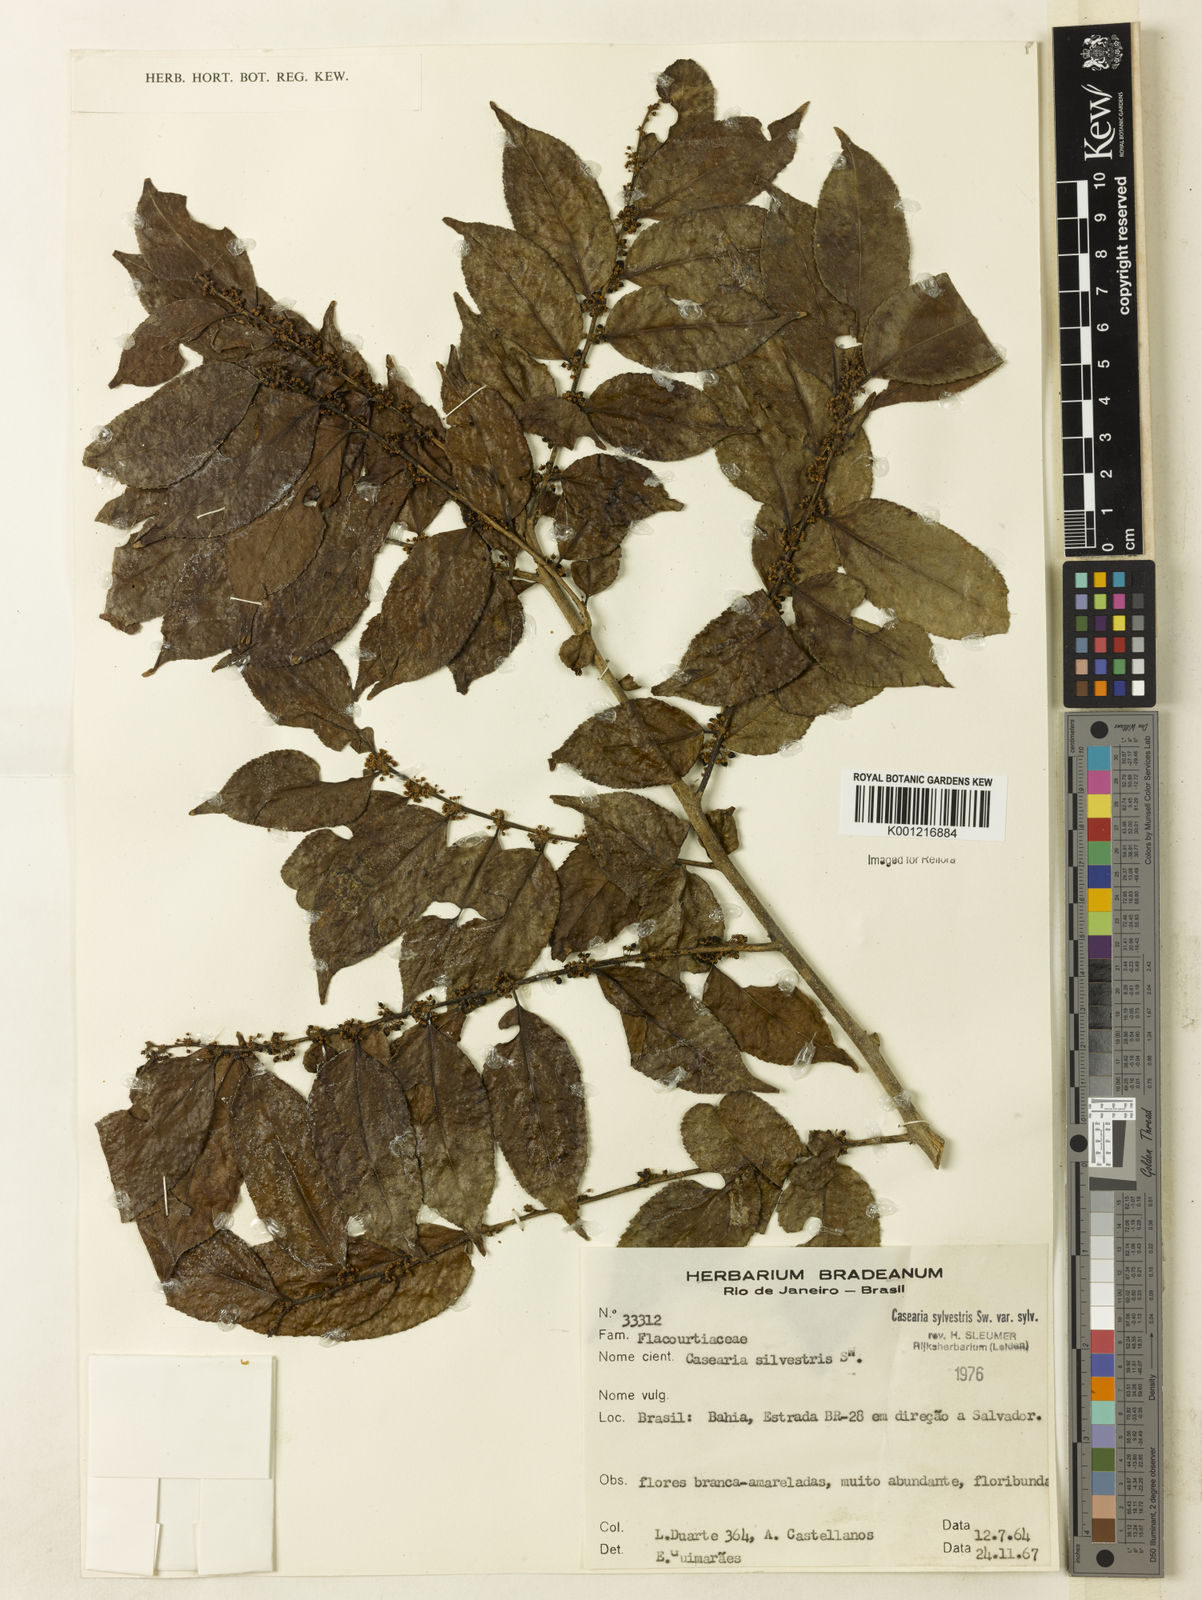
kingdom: Plantae
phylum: Tracheophyta
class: Magnoliopsida
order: Malpighiales
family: Salicaceae
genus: Casearia
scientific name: Casearia sylvestris
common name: Wild sage
